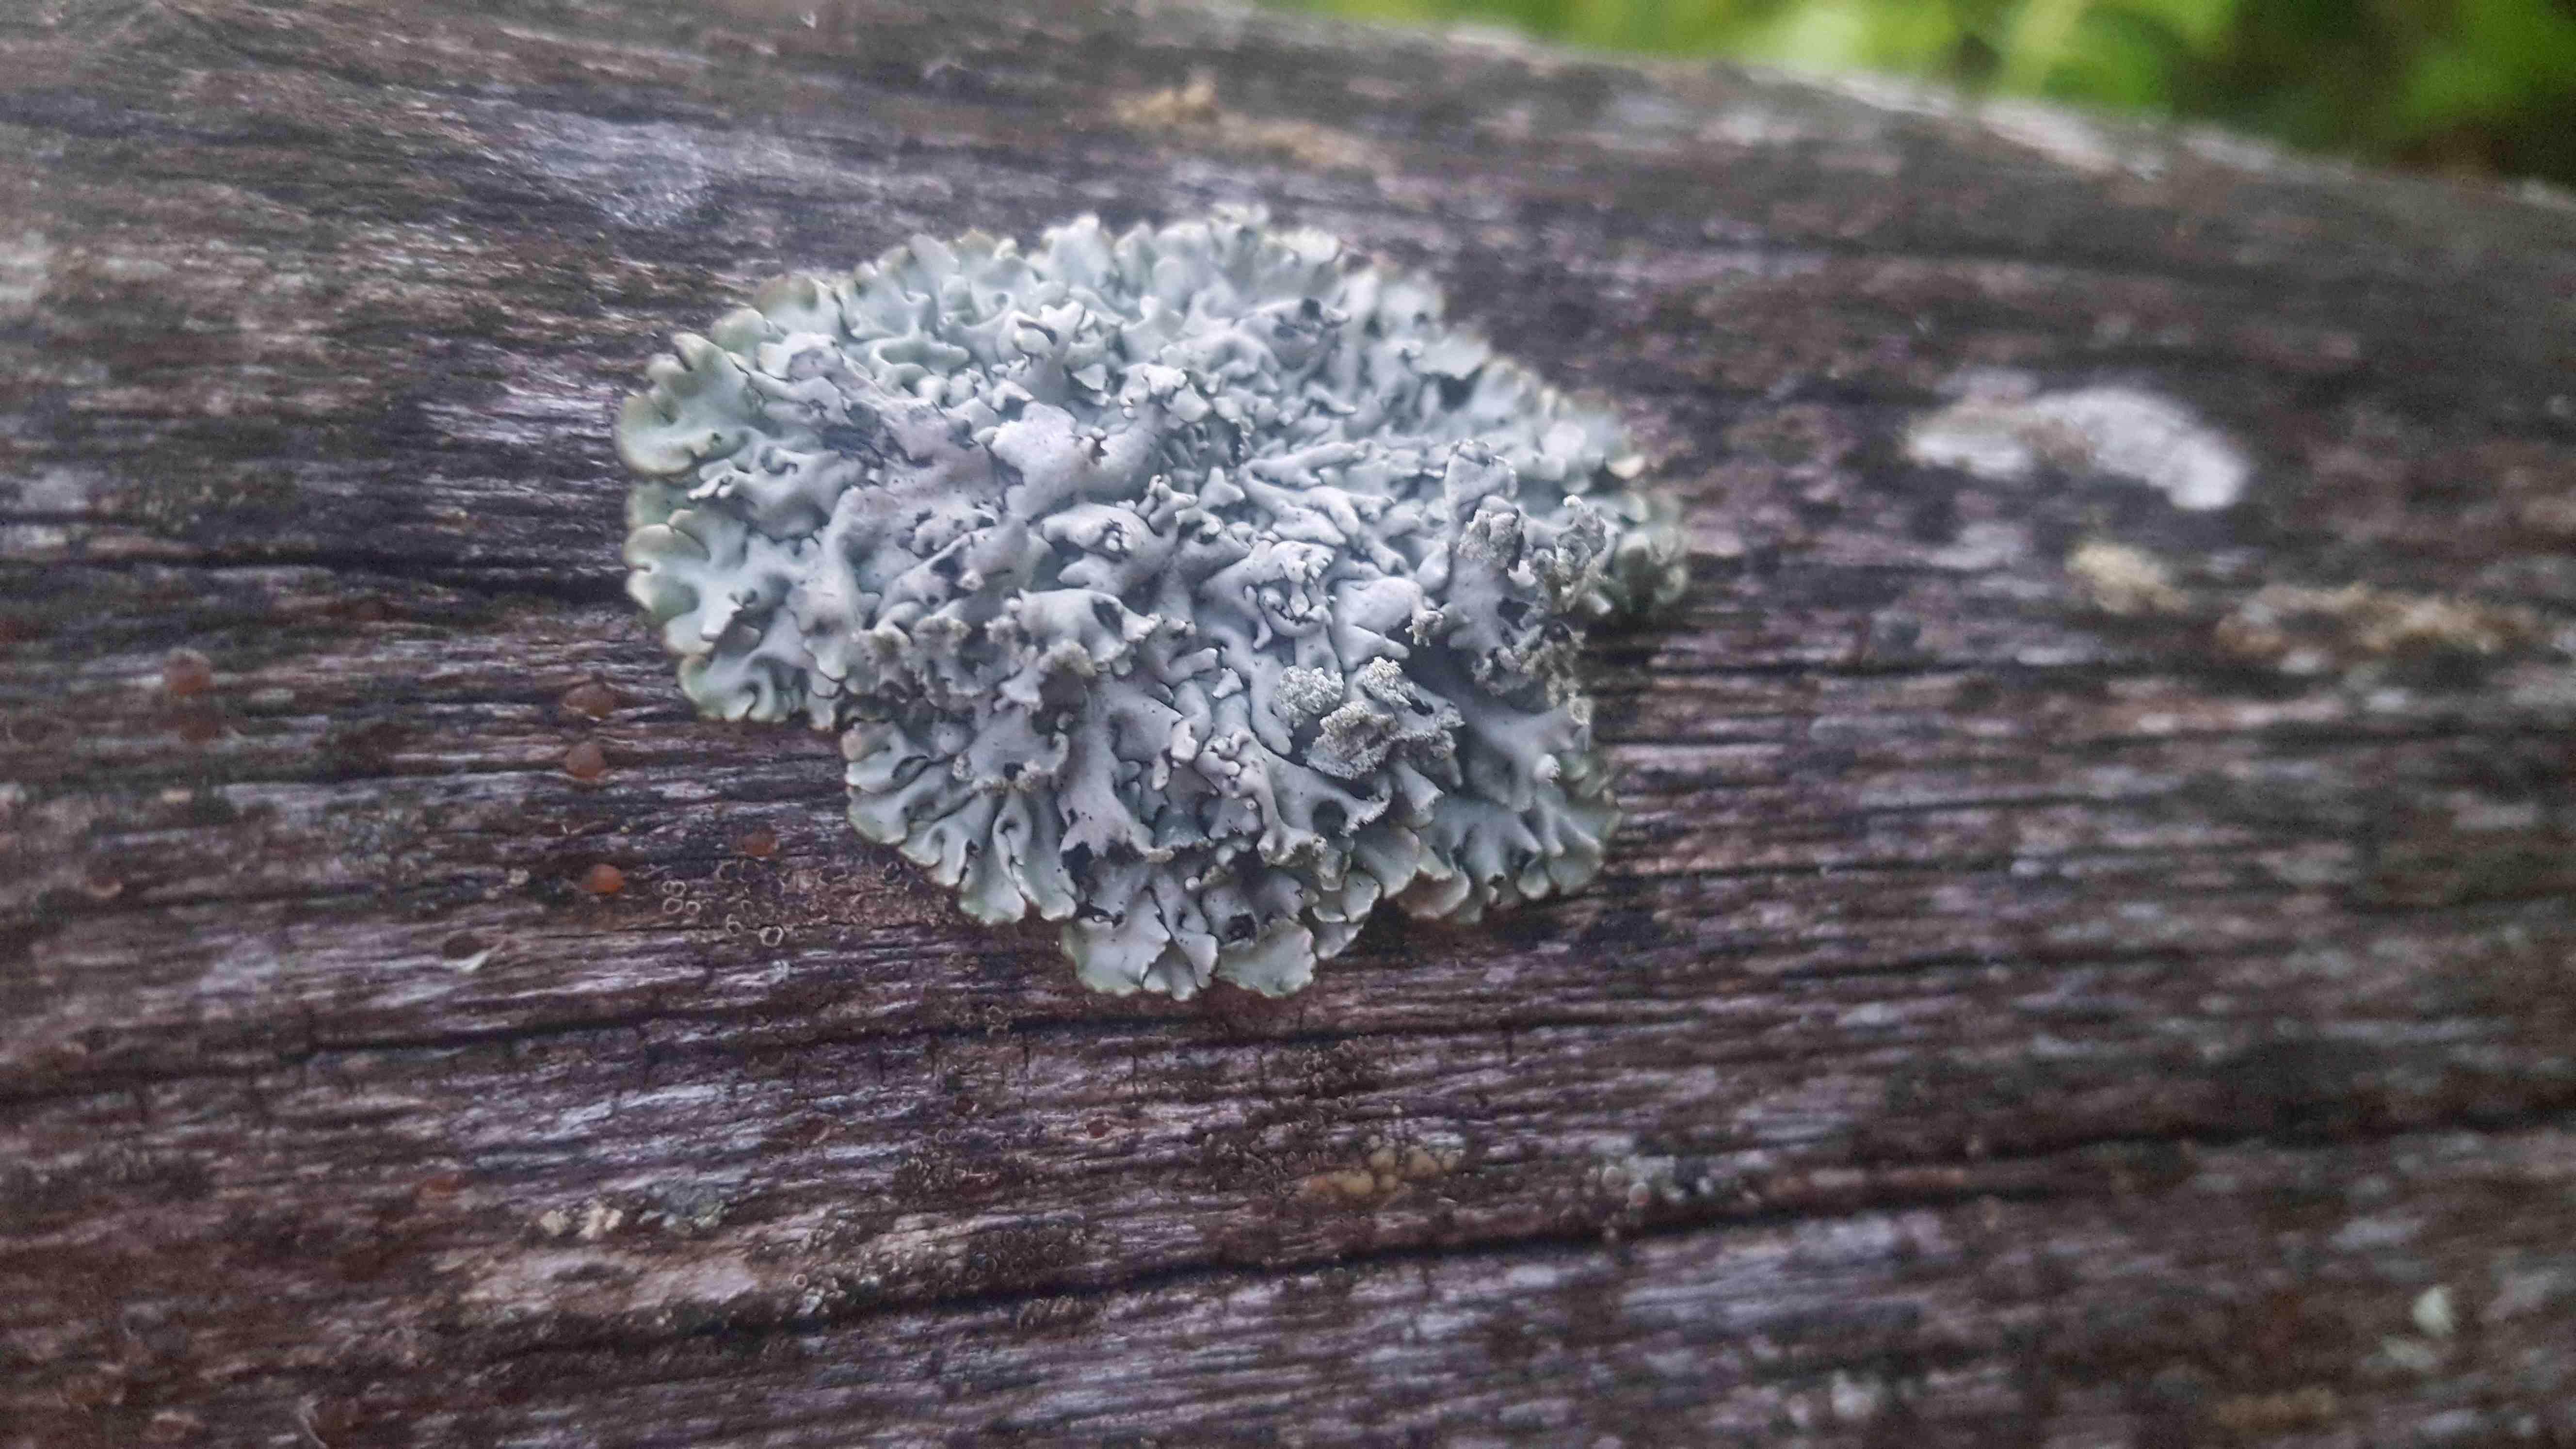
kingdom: Fungi
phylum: Ascomycota
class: Lecanoromycetes
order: Lecanorales
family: Parmeliaceae
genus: Hypogymnia
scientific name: Hypogymnia physodes
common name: almindelig kvistlav
